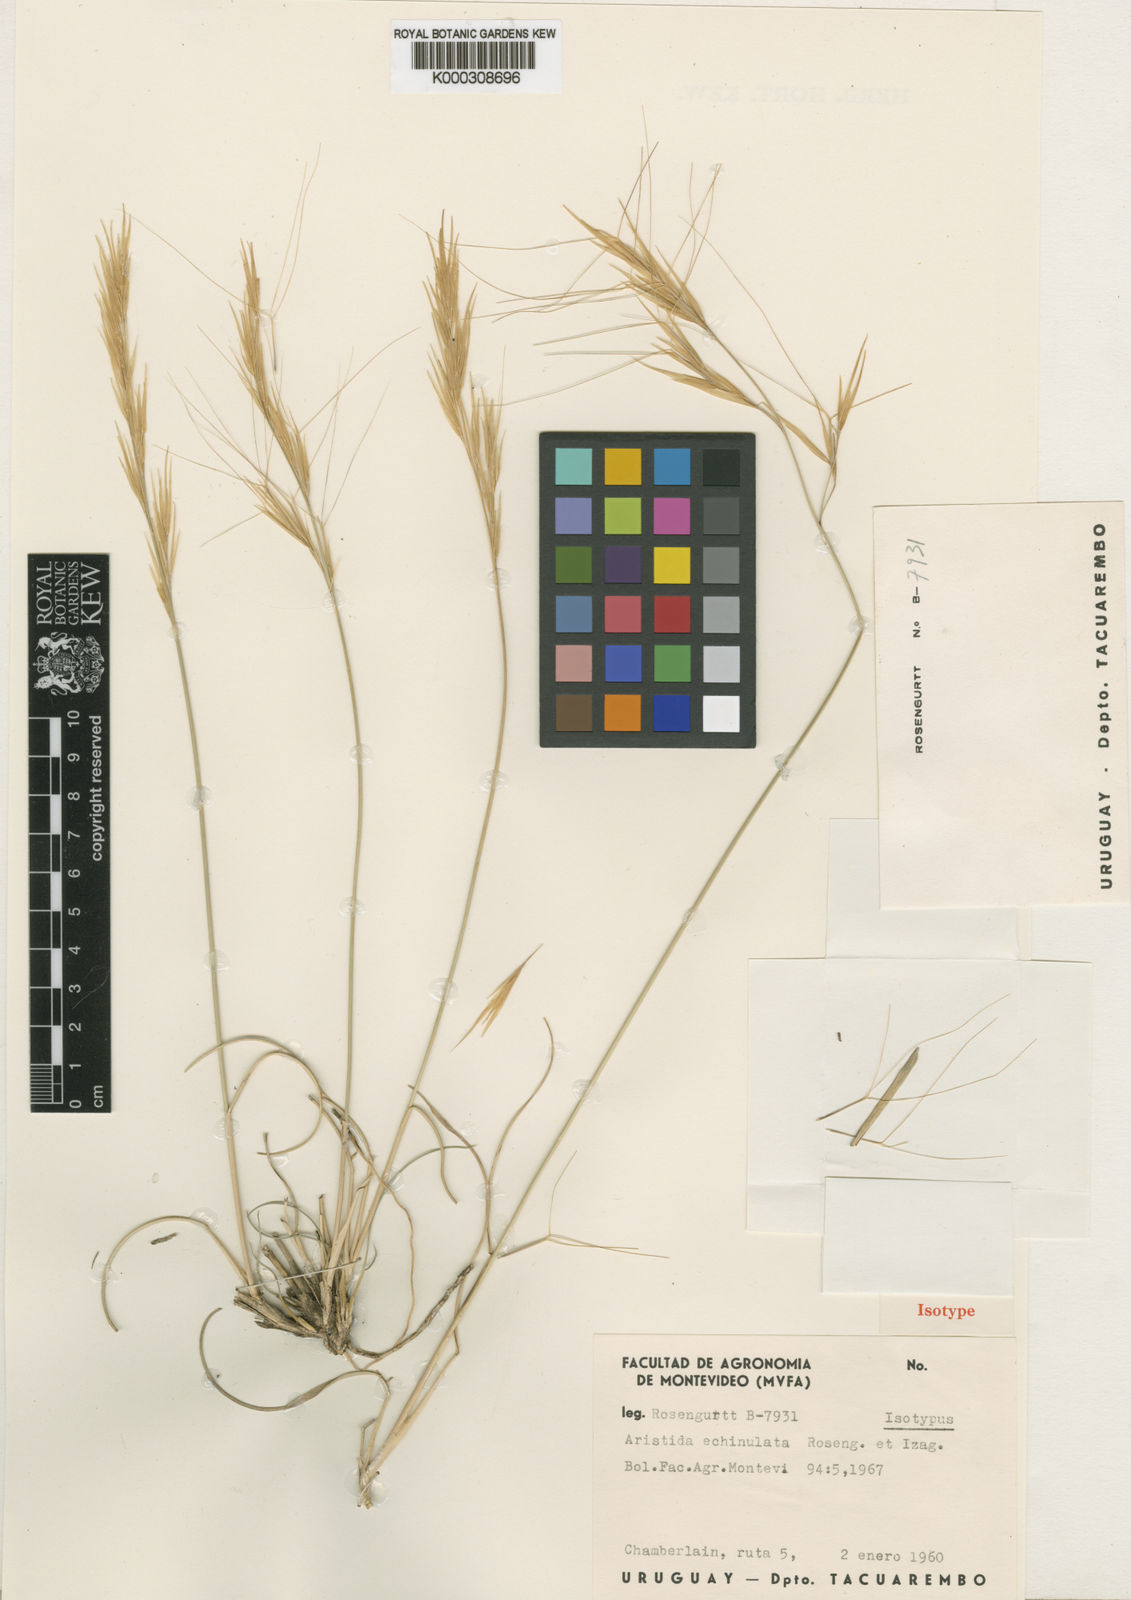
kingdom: Plantae
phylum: Tracheophyta
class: Liliopsida
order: Poales
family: Poaceae
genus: Aristida
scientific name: Aristida echinulata
